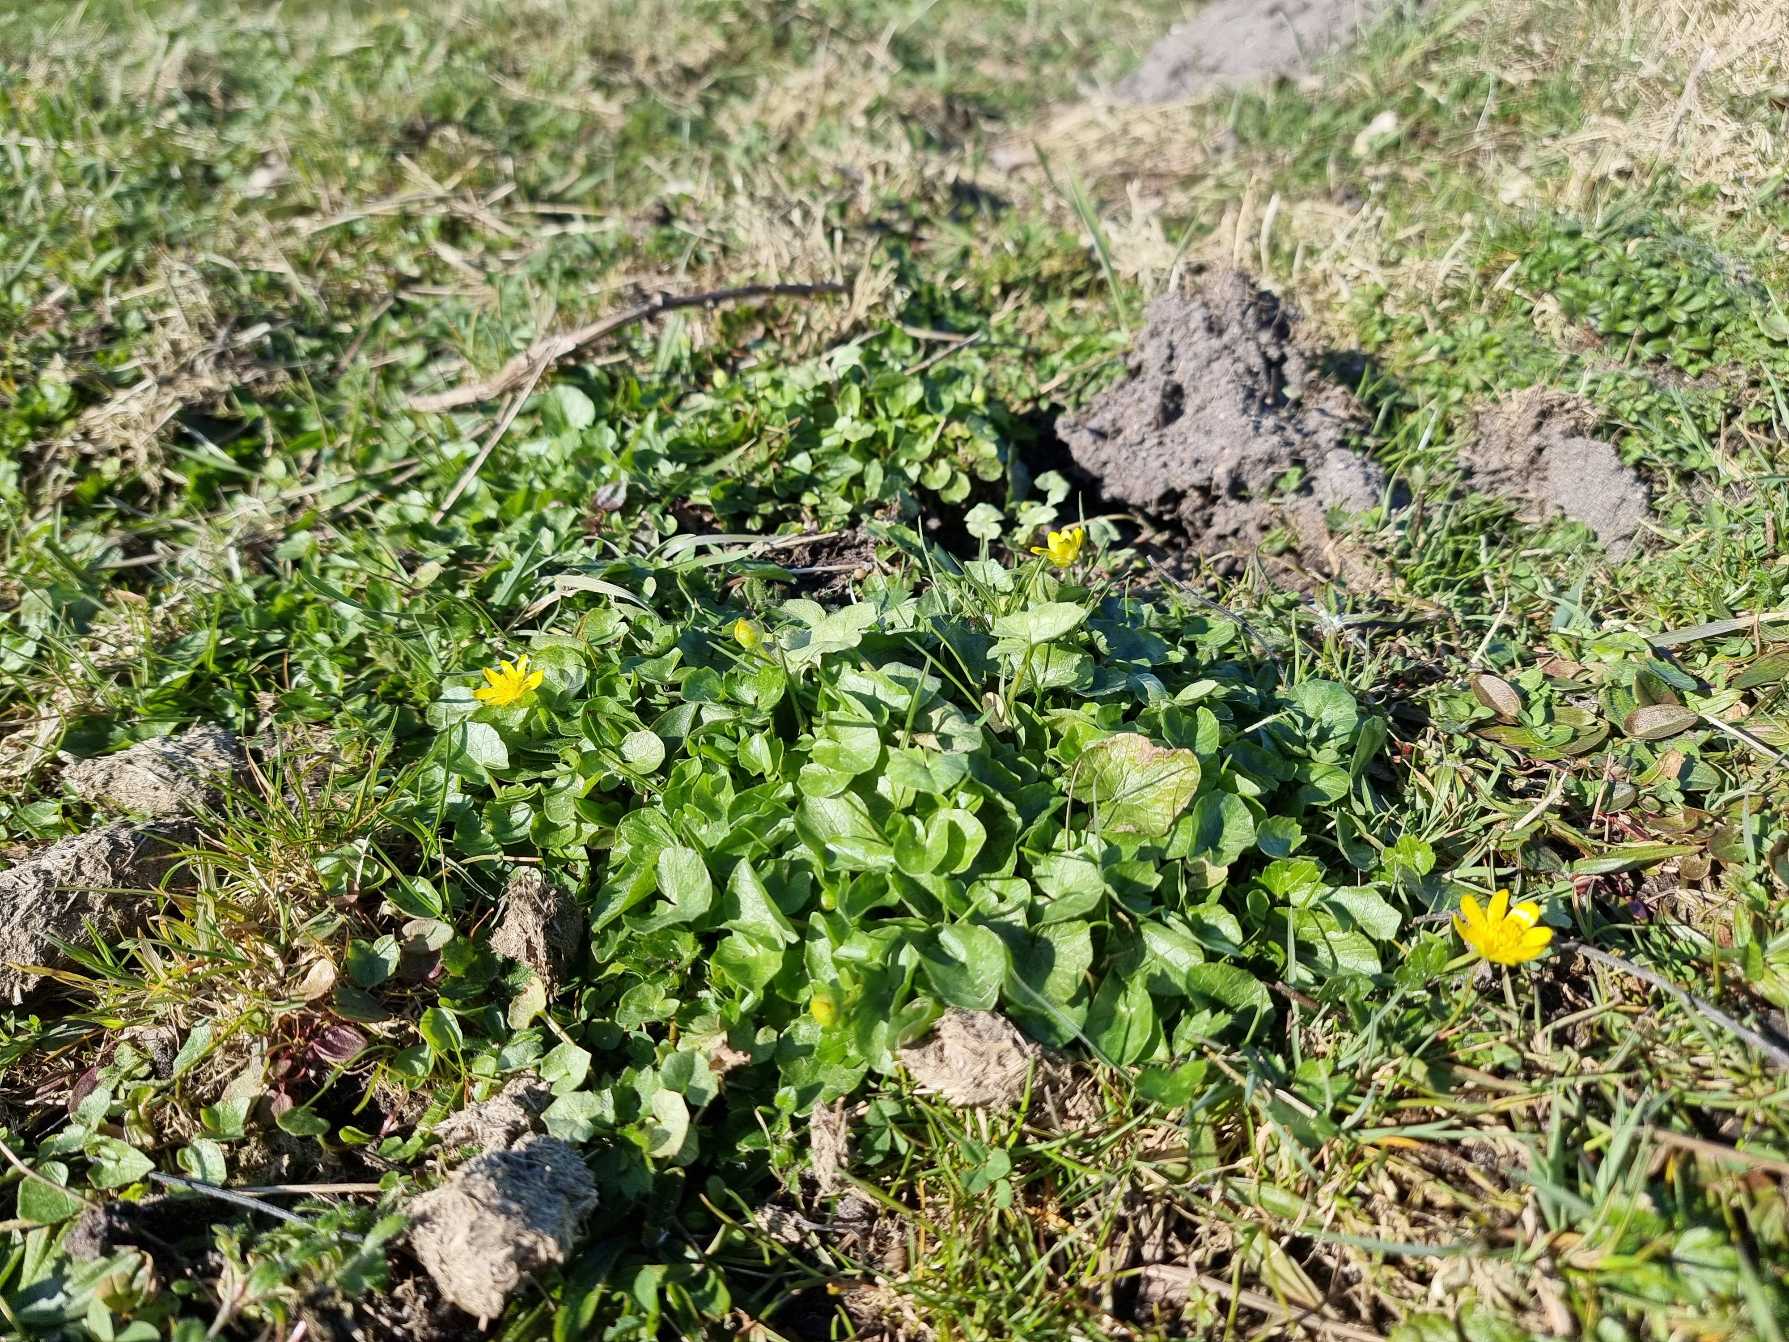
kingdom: Plantae
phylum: Tracheophyta
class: Magnoliopsida
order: Ranunculales
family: Ranunculaceae
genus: Ficaria
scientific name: Ficaria verna
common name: Vorterod
